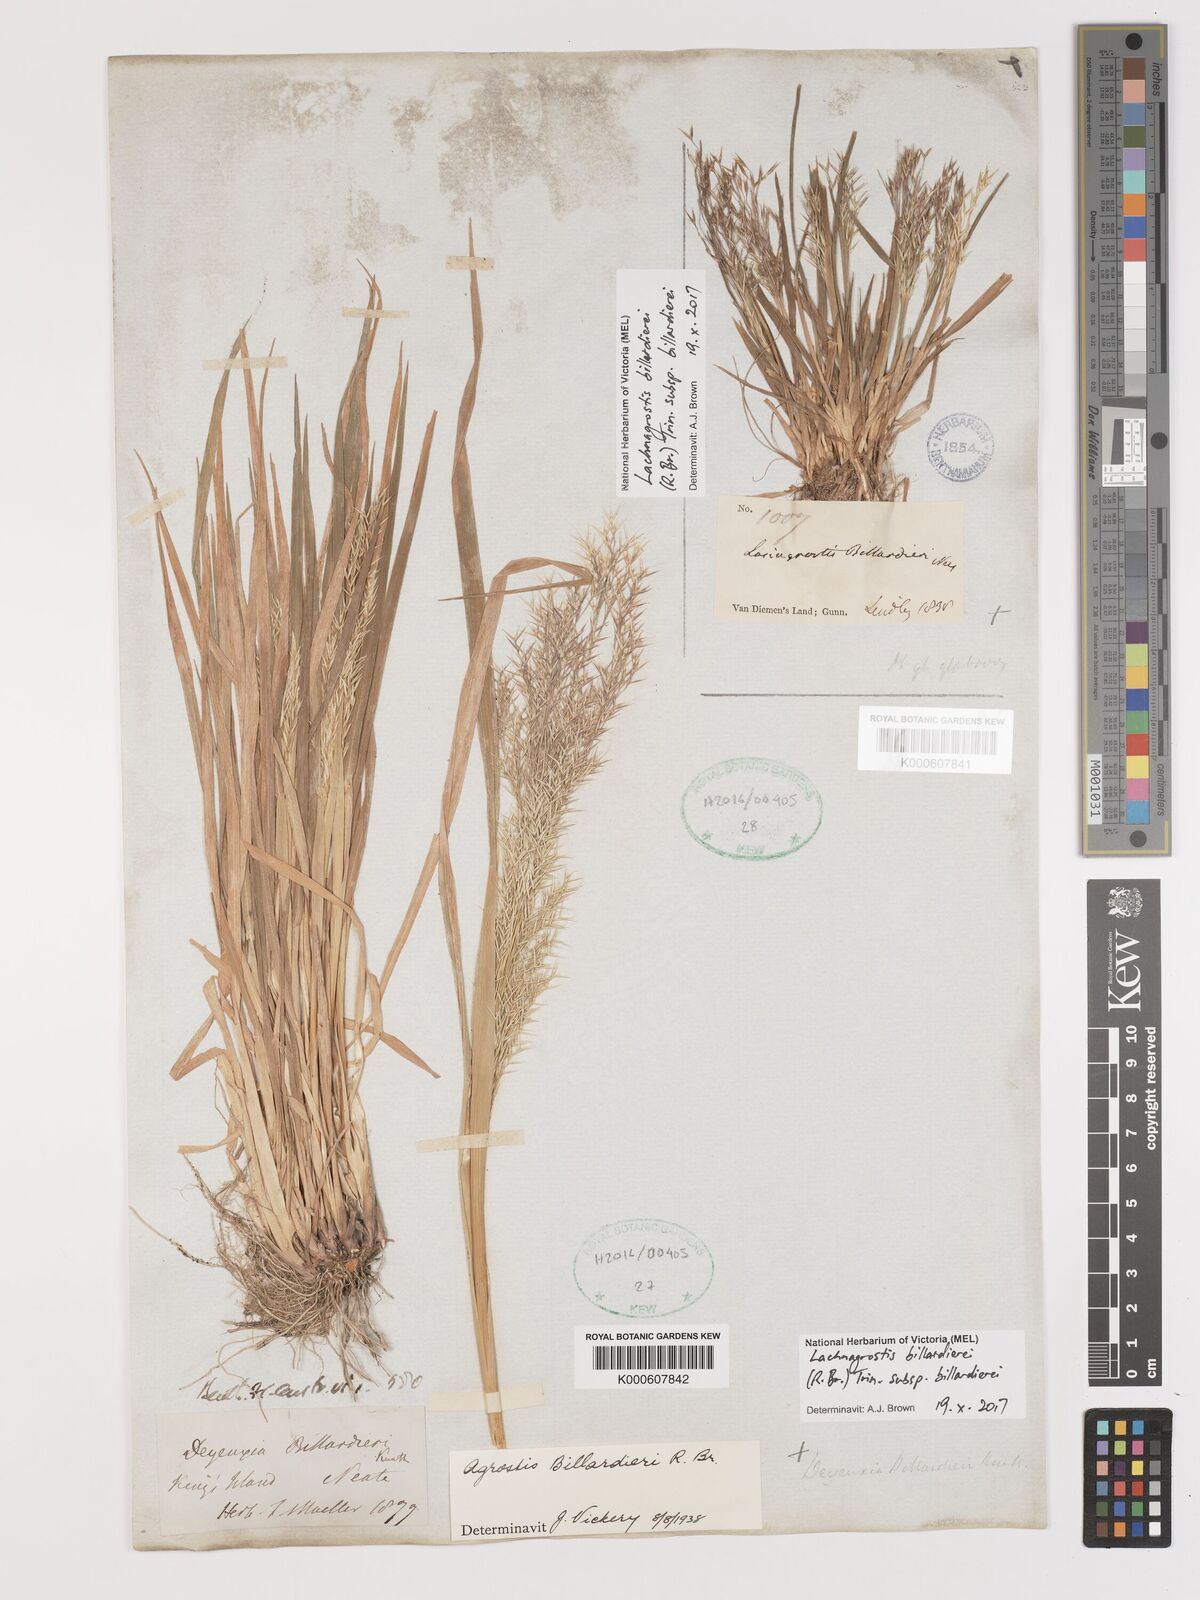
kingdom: Plantae
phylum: Tracheophyta
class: Liliopsida
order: Poales
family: Poaceae
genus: Lachnagrostis
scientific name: Lachnagrostis billardierei
